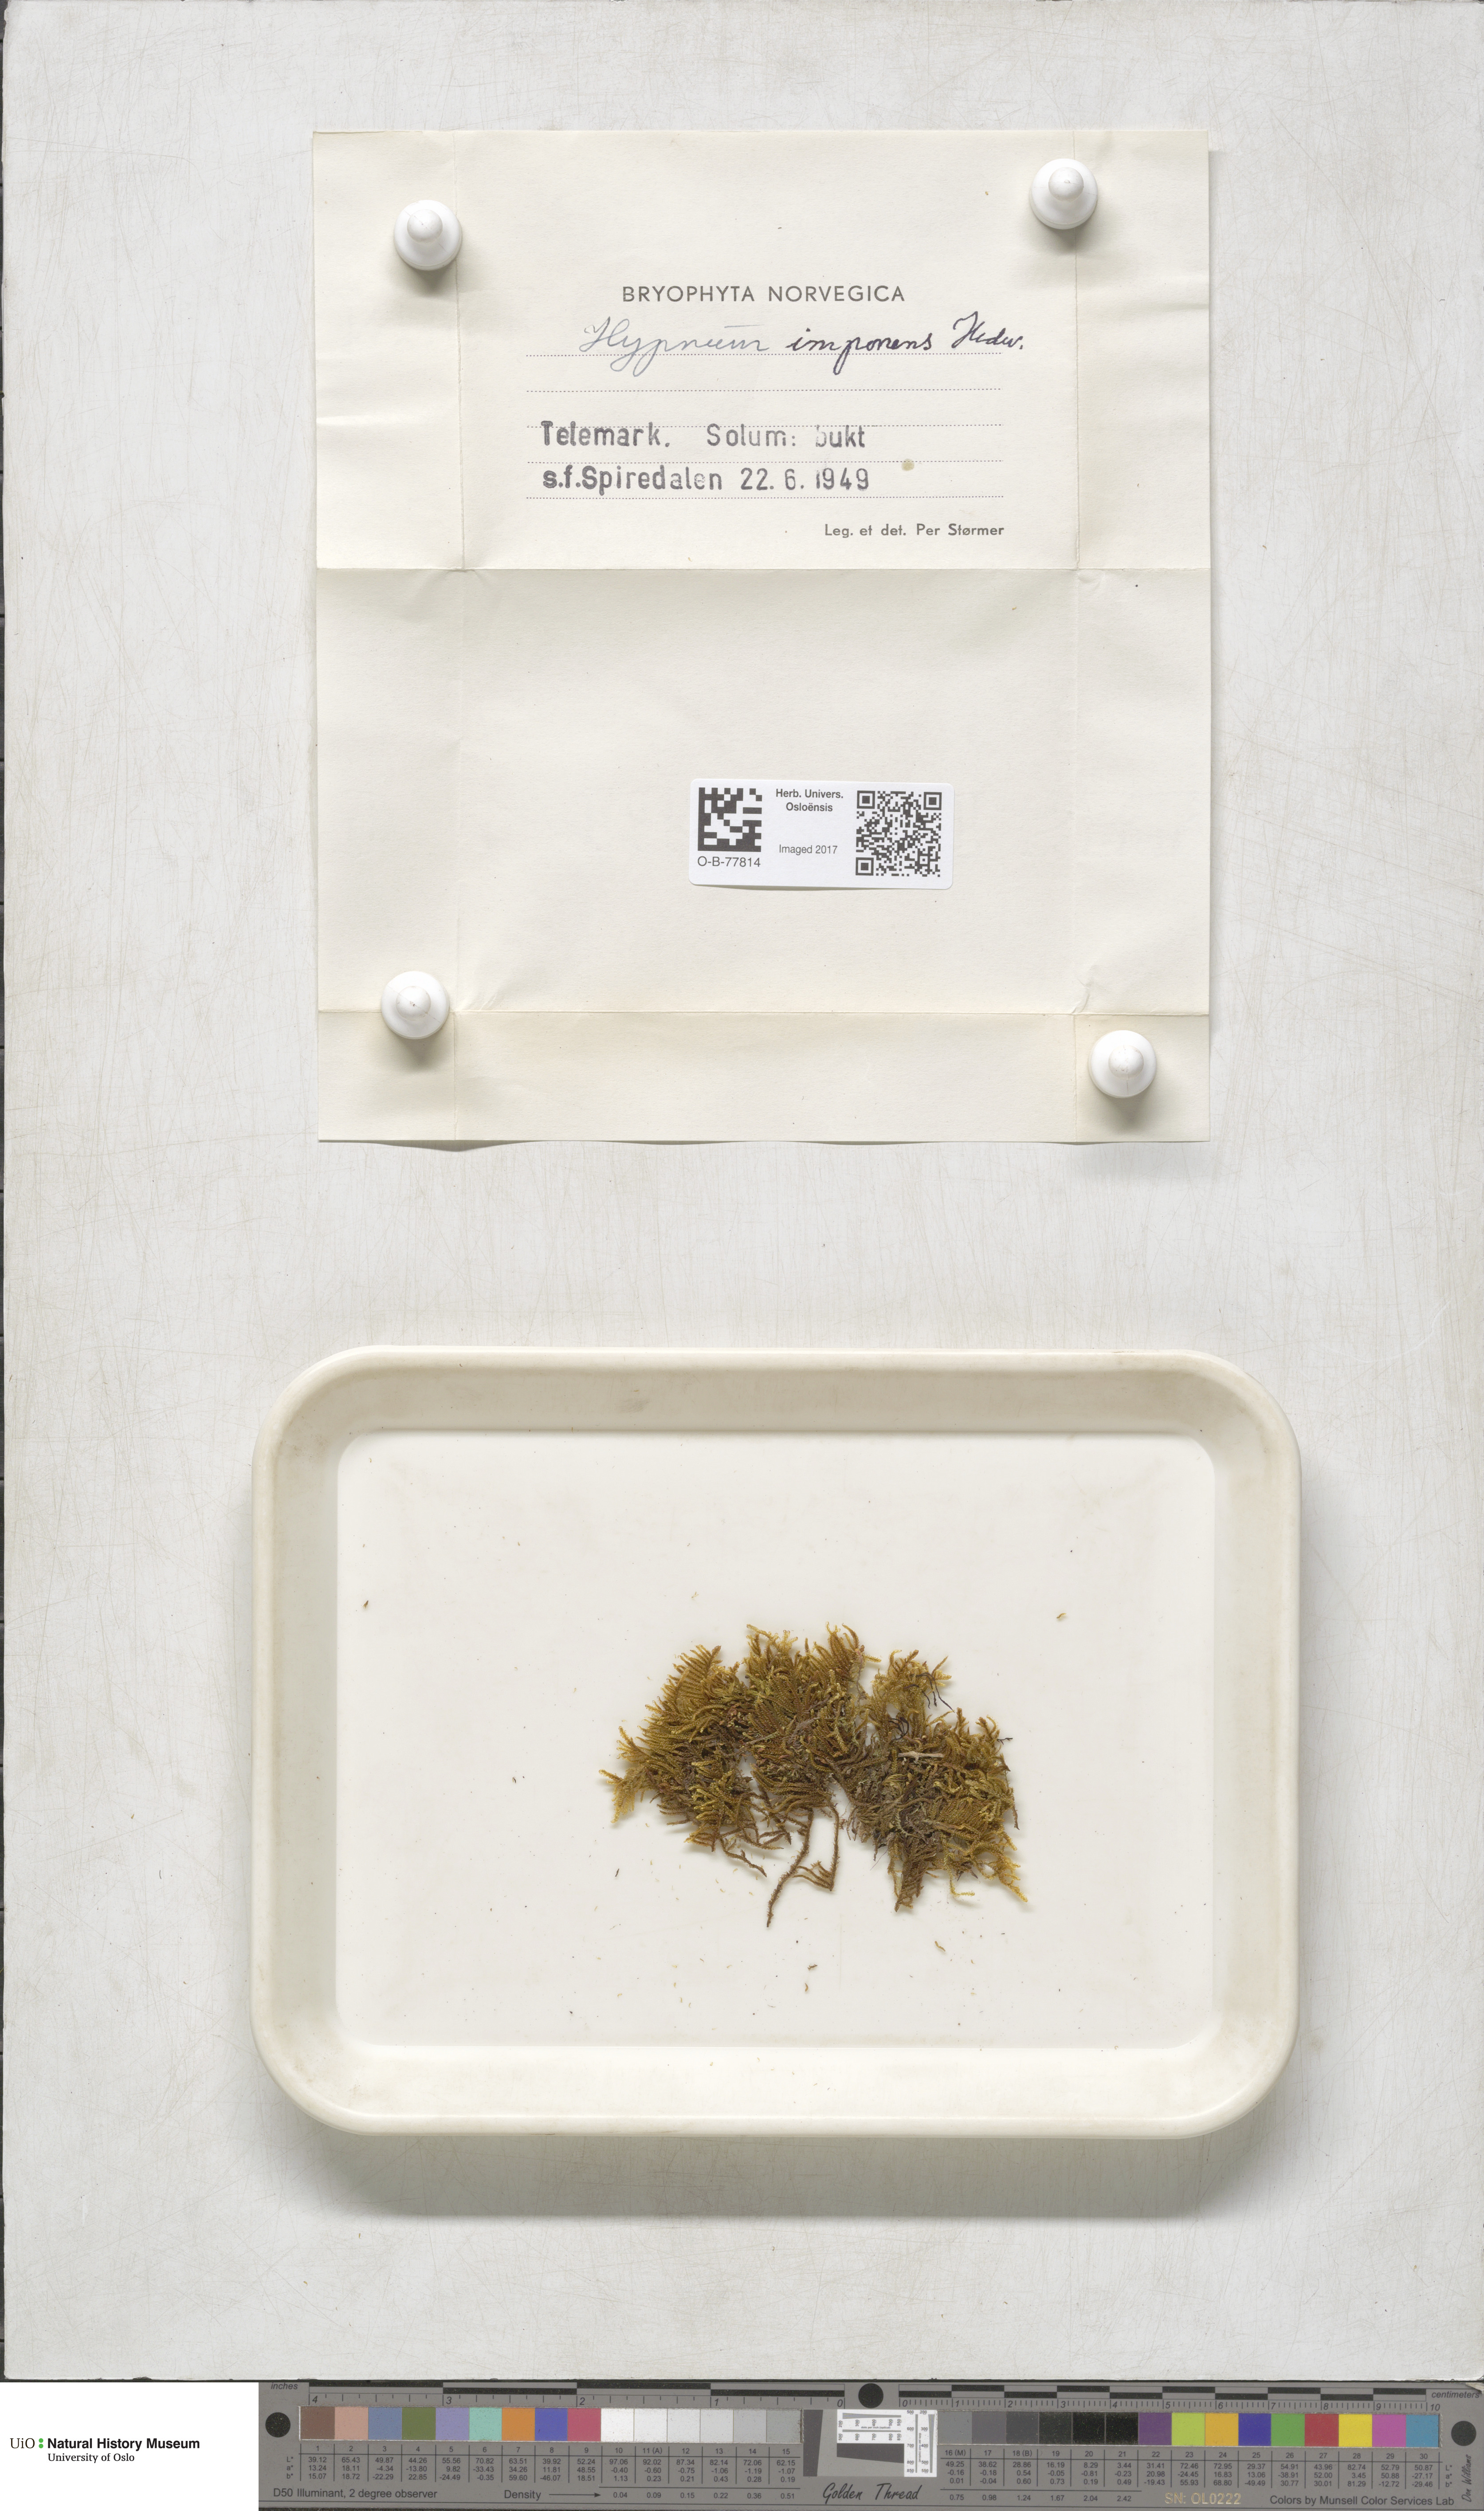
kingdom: Plantae
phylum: Bryophyta
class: Bryopsida
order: Hypnales
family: Callicladiaceae
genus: Callicladium
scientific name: Callicladium imponens
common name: Brocade moss
